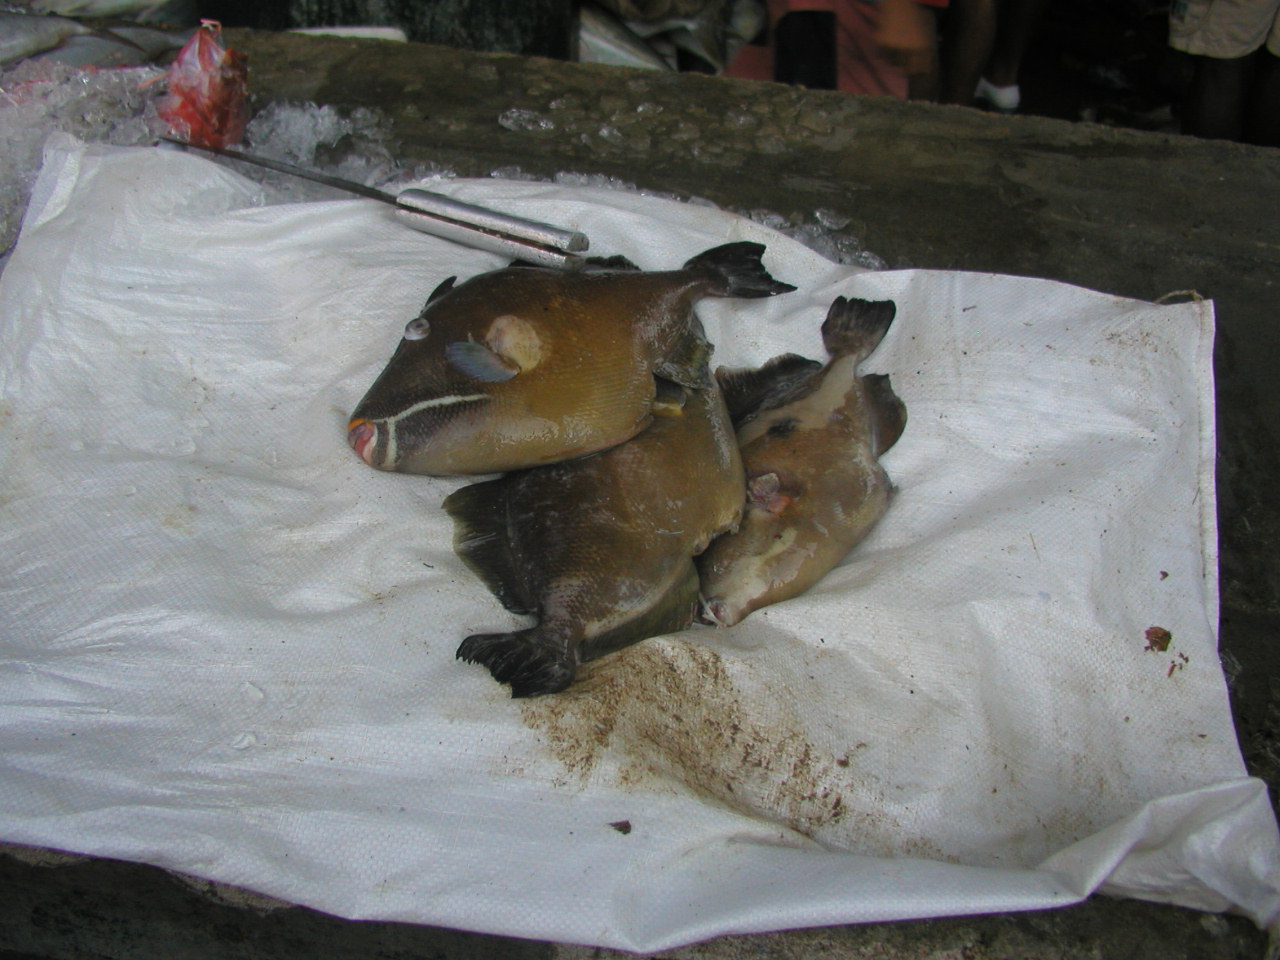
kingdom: Animalia
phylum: Chordata
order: Tetraodontiformes
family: Balistidae
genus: Sufflamen
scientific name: Sufflamen fraenatum
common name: Bridle triggerfish
